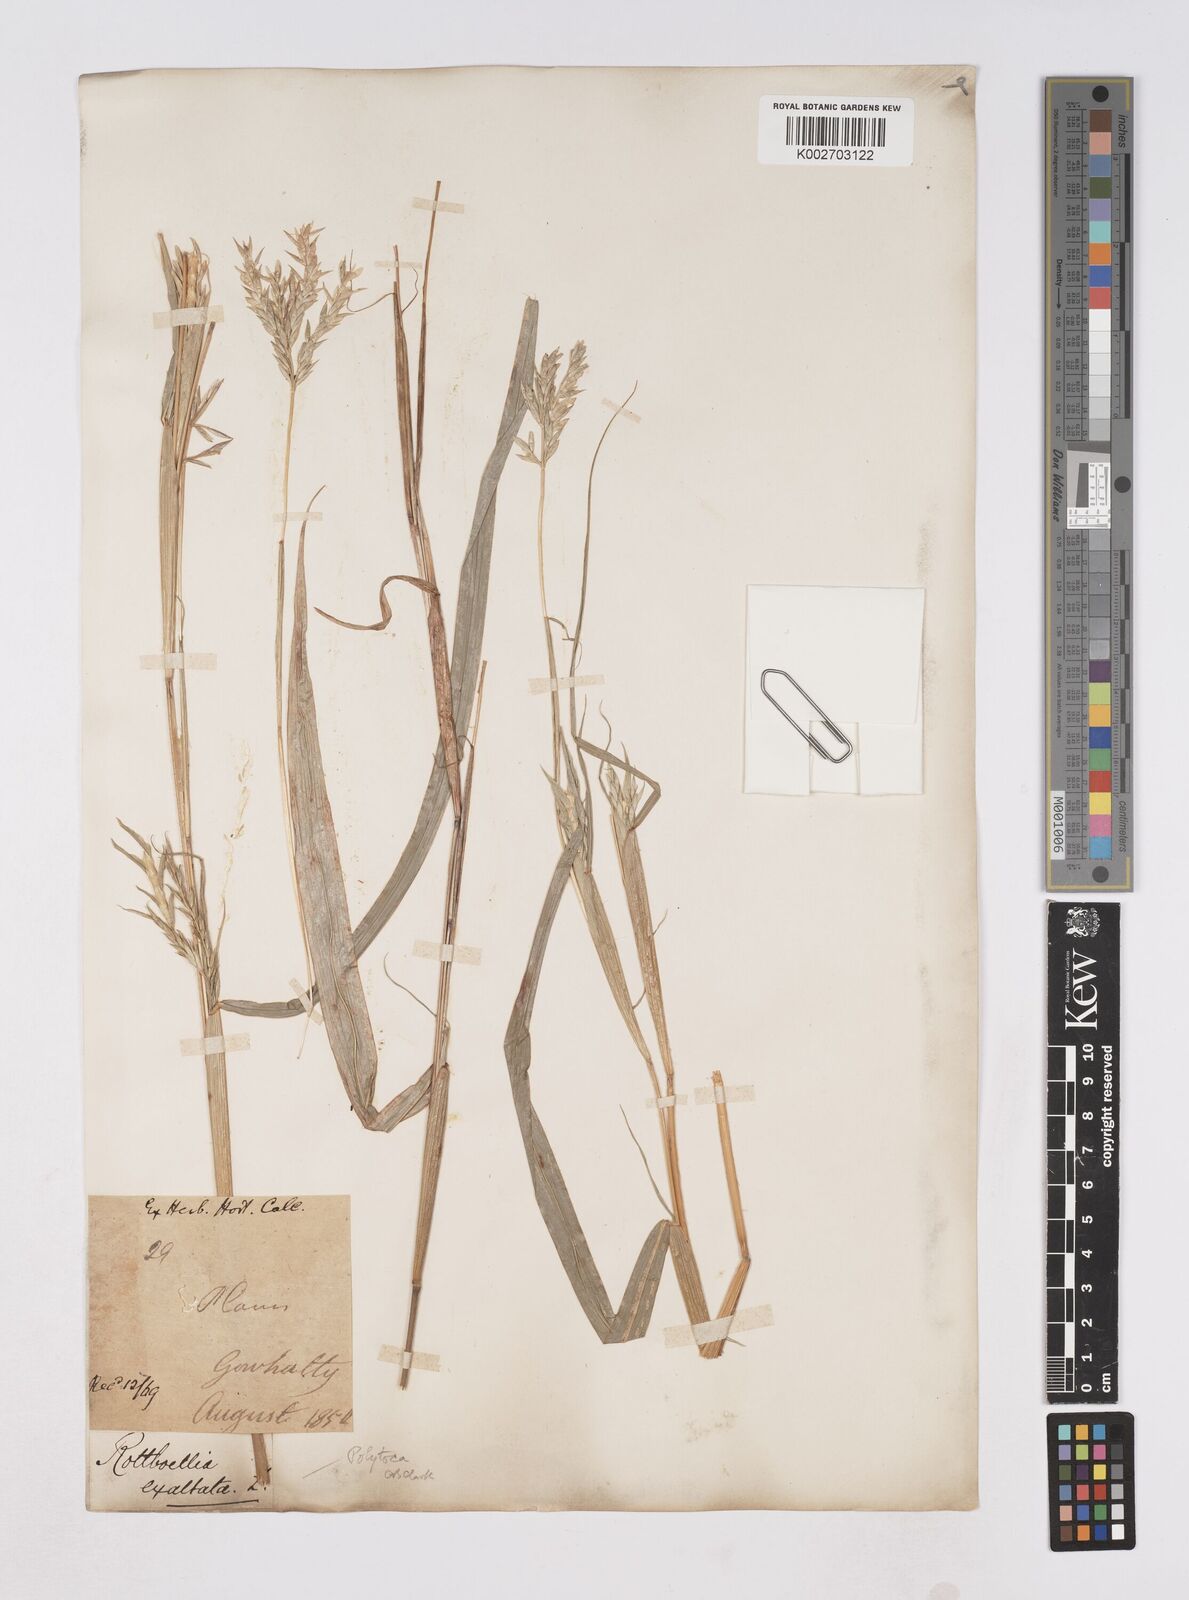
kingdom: Plantae
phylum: Tracheophyta
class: Liliopsida
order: Poales
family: Poaceae
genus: Polytoca
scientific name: Polytoca digitata
